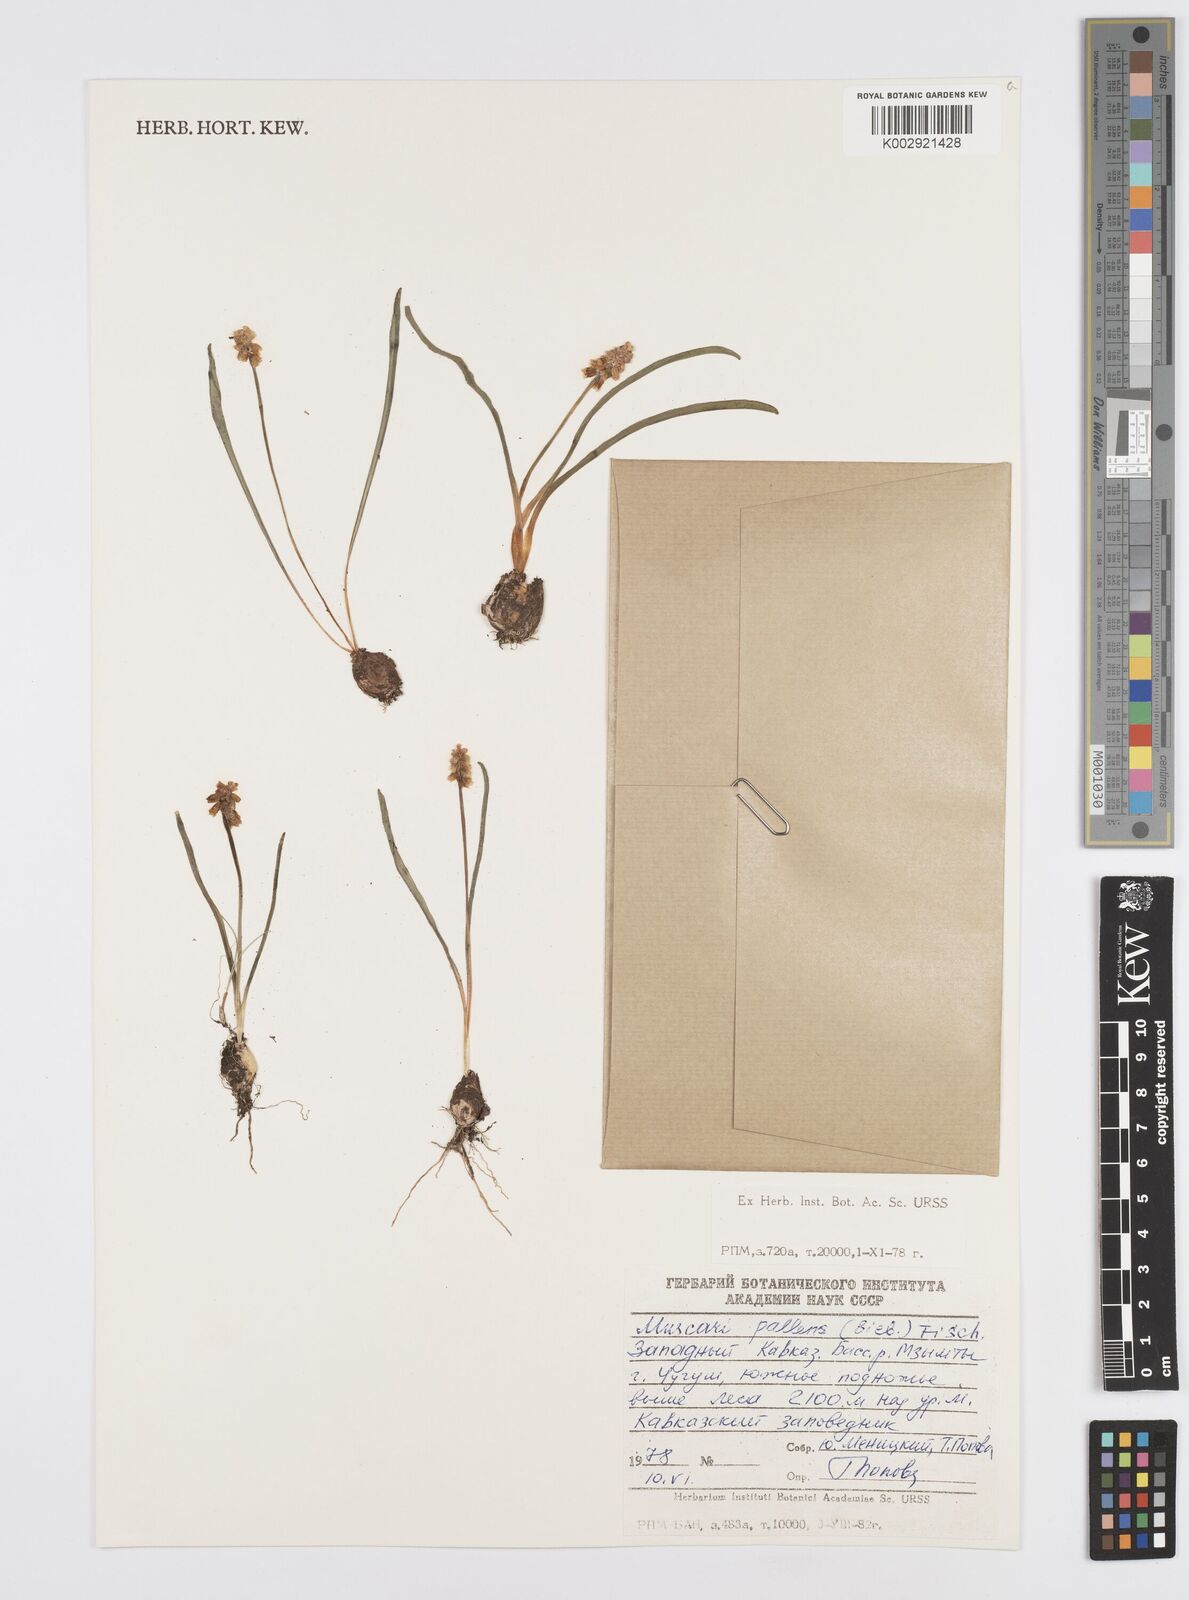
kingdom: Plantae
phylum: Tracheophyta
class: Liliopsida
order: Asparagales
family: Asparagaceae
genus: Muscari
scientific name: Muscari pallens
